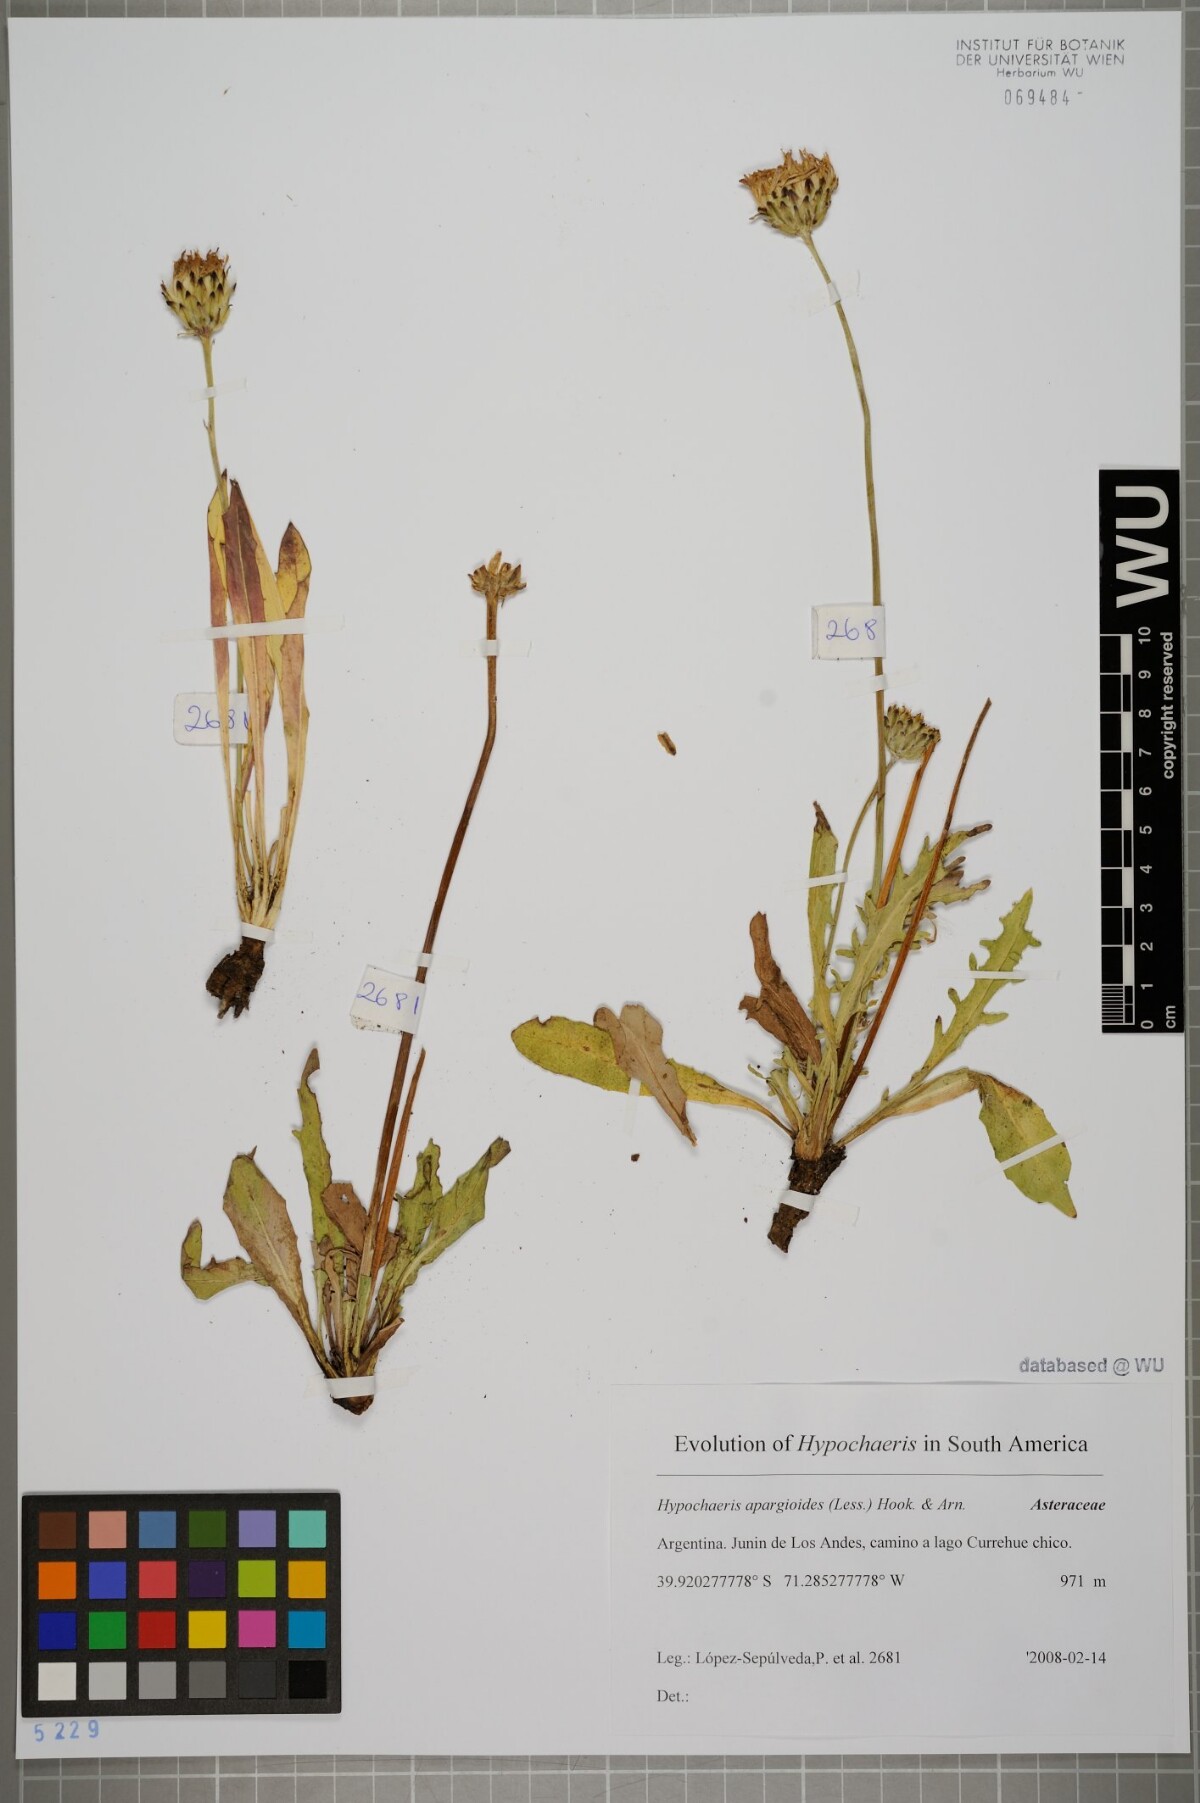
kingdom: Plantae
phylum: Tracheophyta
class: Magnoliopsida
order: Asterales
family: Asteraceae
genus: Hypochaeris
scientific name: Hypochaeris apargioides
